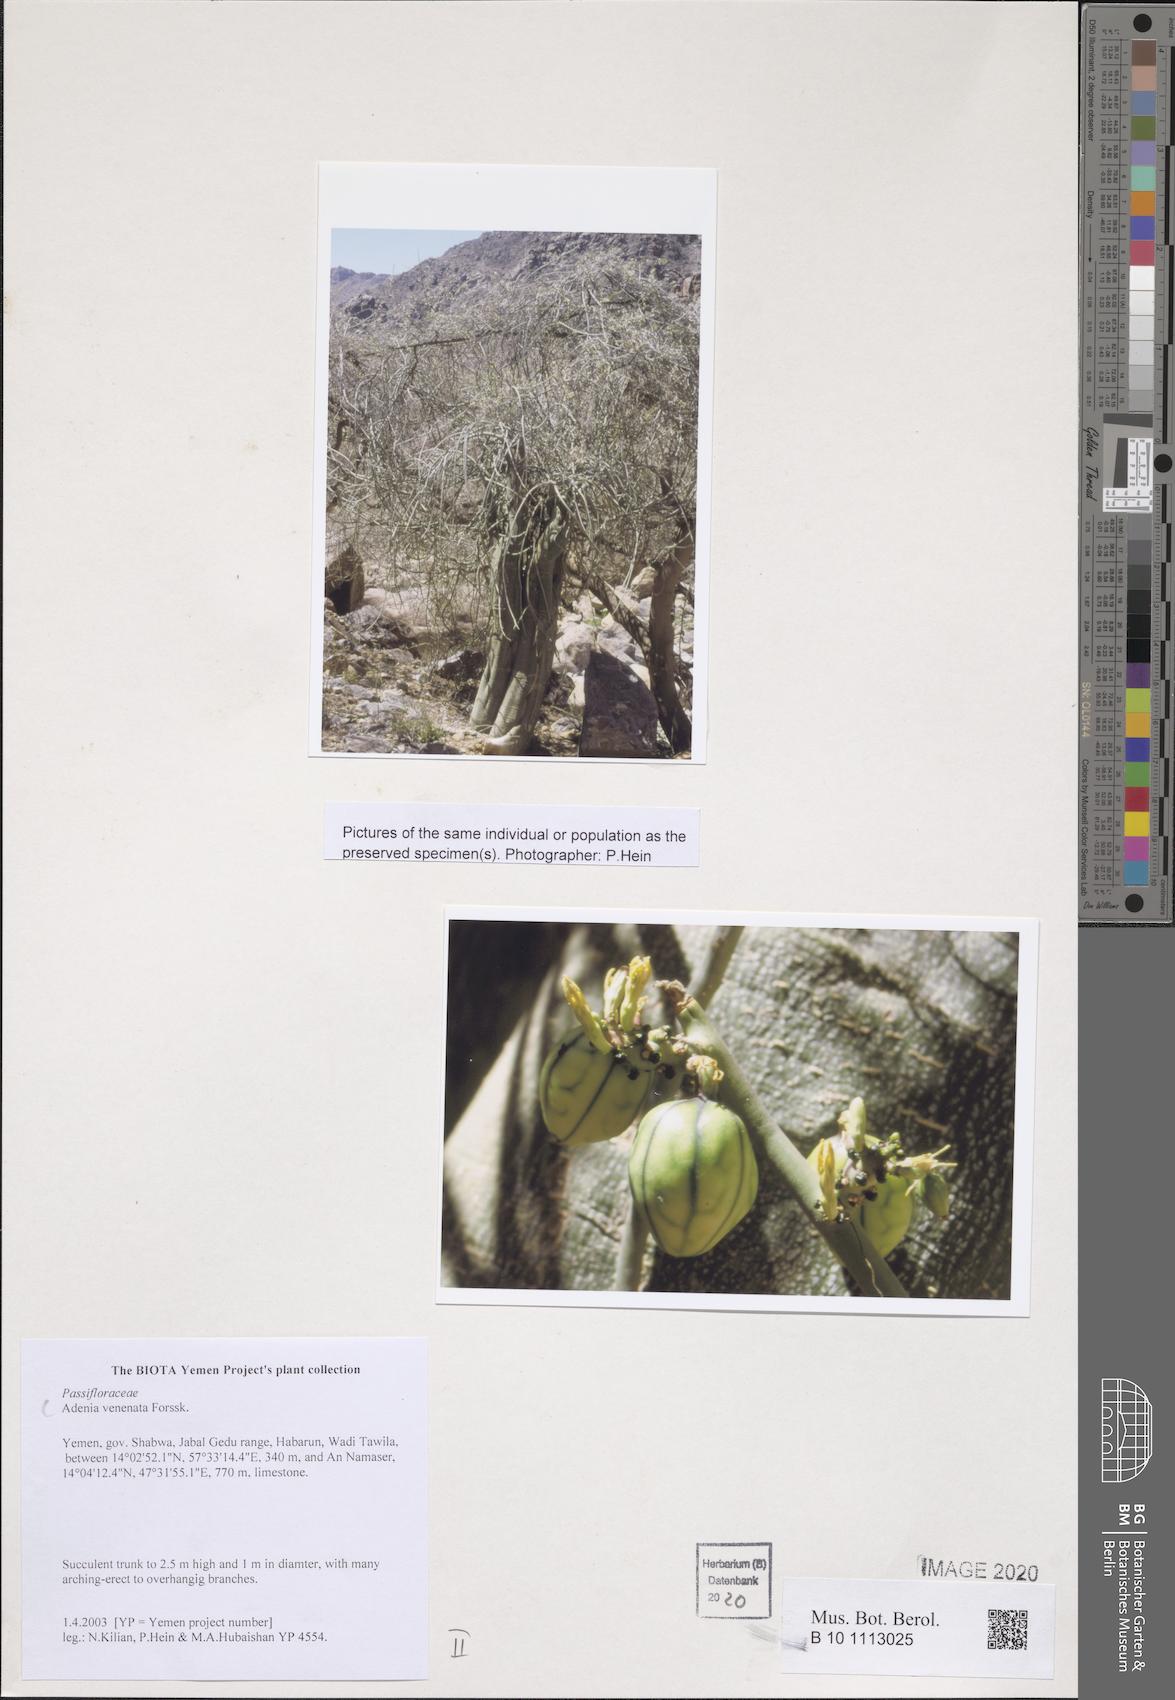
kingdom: Plantae
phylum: Tracheophyta
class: Magnoliopsida
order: Malpighiales
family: Passifloraceae
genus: Adenia
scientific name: Adenia venenata
